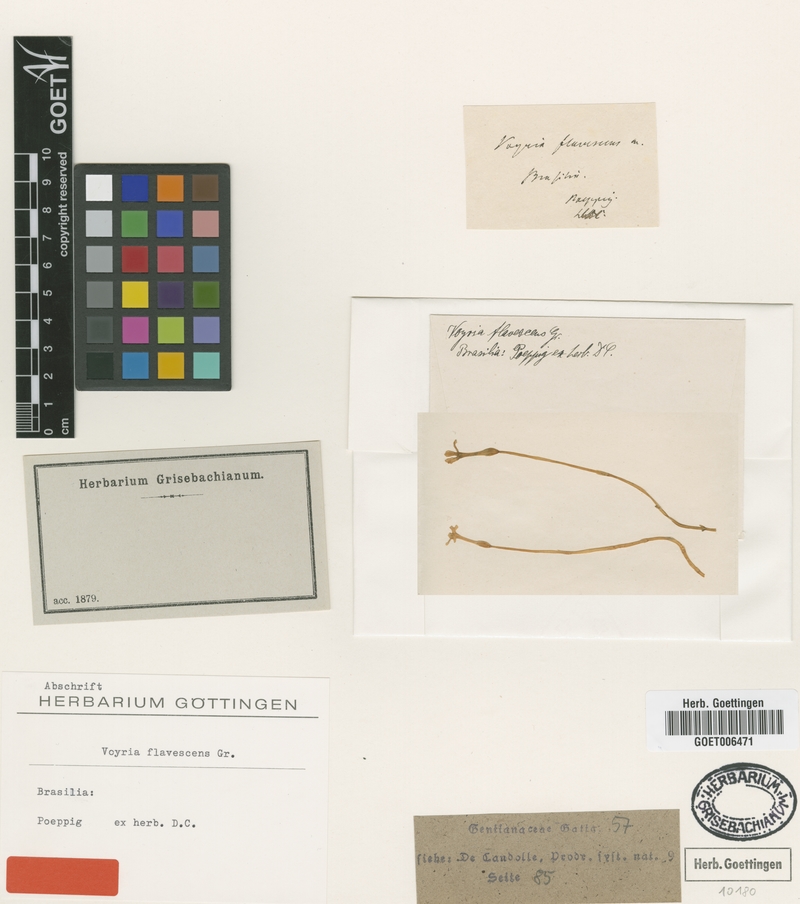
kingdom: Plantae
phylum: Tracheophyta
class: Magnoliopsida
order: Gentianales
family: Gentianaceae
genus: Voyria
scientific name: Voyria flavescens
